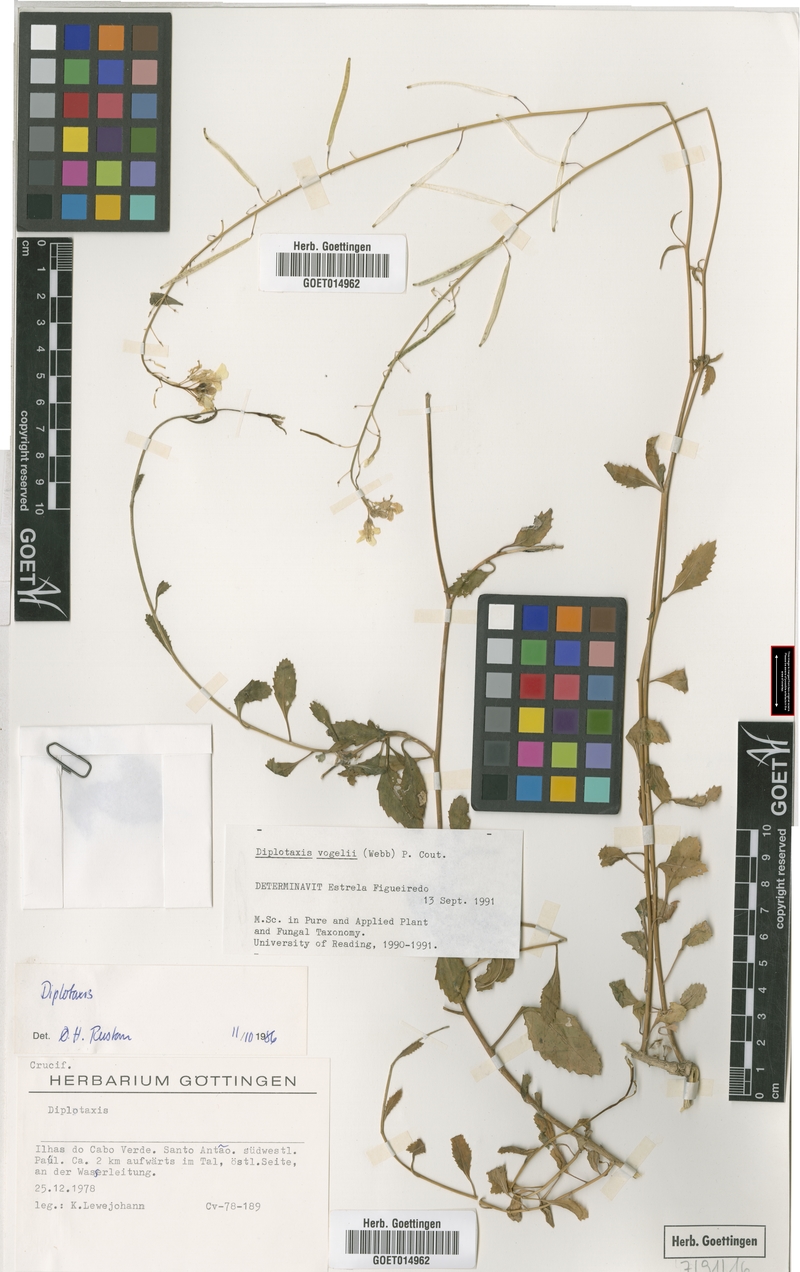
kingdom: Plantae
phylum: Tracheophyta
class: Magnoliopsida
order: Brassicales
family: Brassicaceae
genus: Diplotaxis
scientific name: Diplotaxis vogelii
